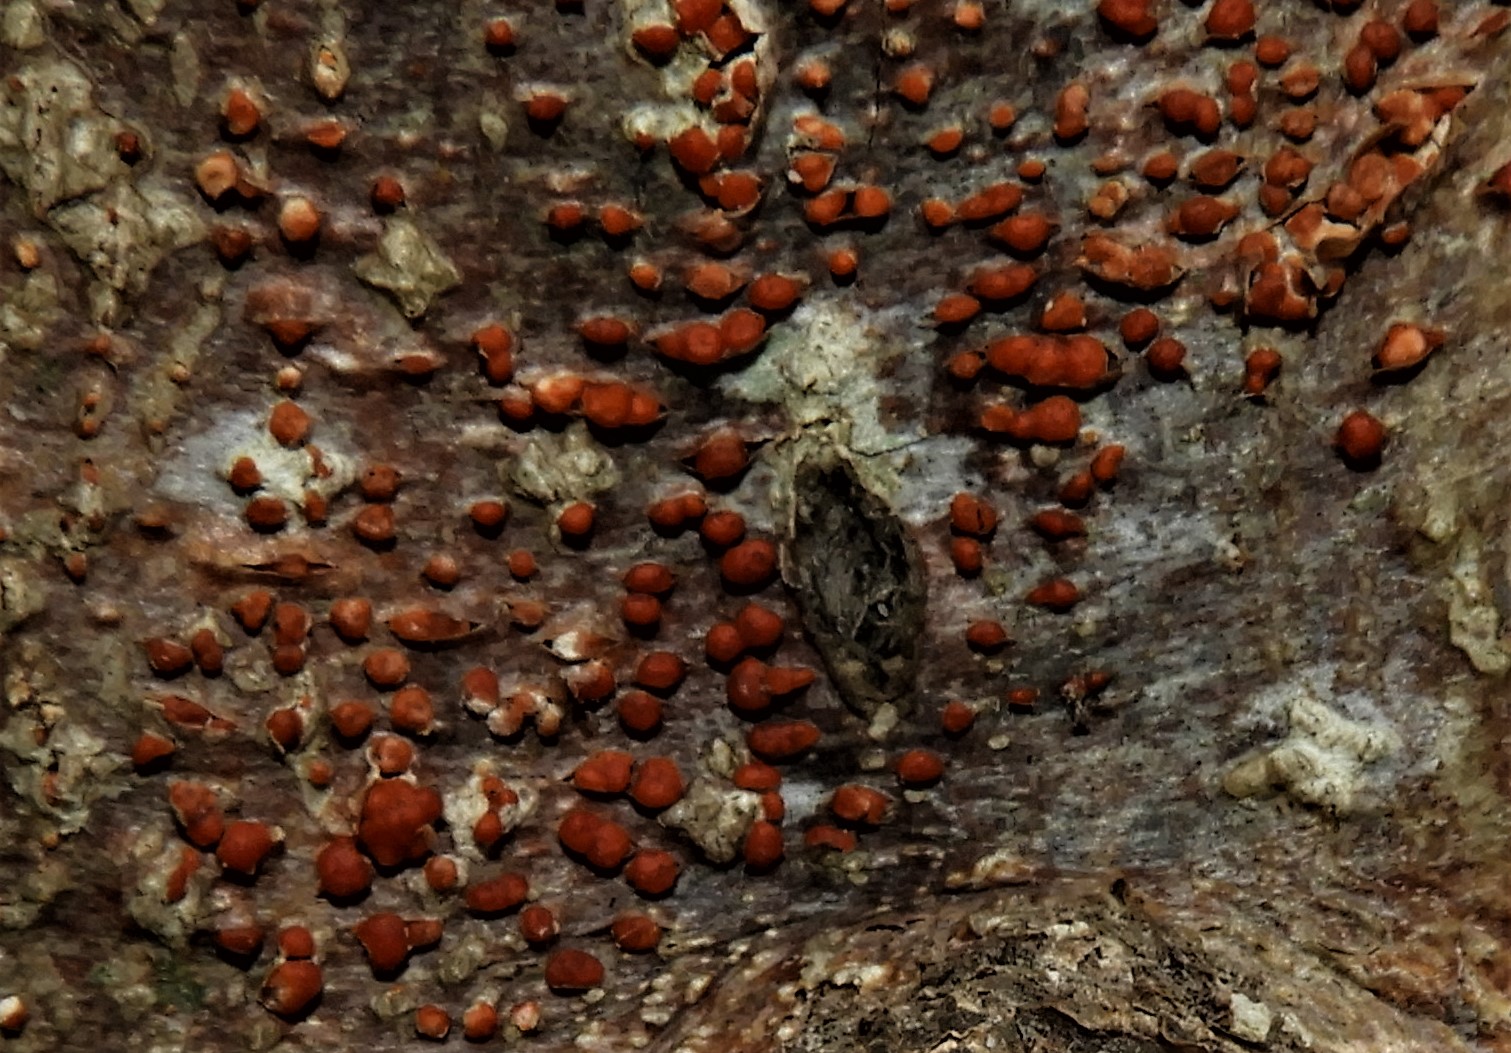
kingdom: Fungi
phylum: Ascomycota
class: Sordariomycetes
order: Hypocreales
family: Nectriaceae
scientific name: Nectriaceae
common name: cinnobersvampfamilien
